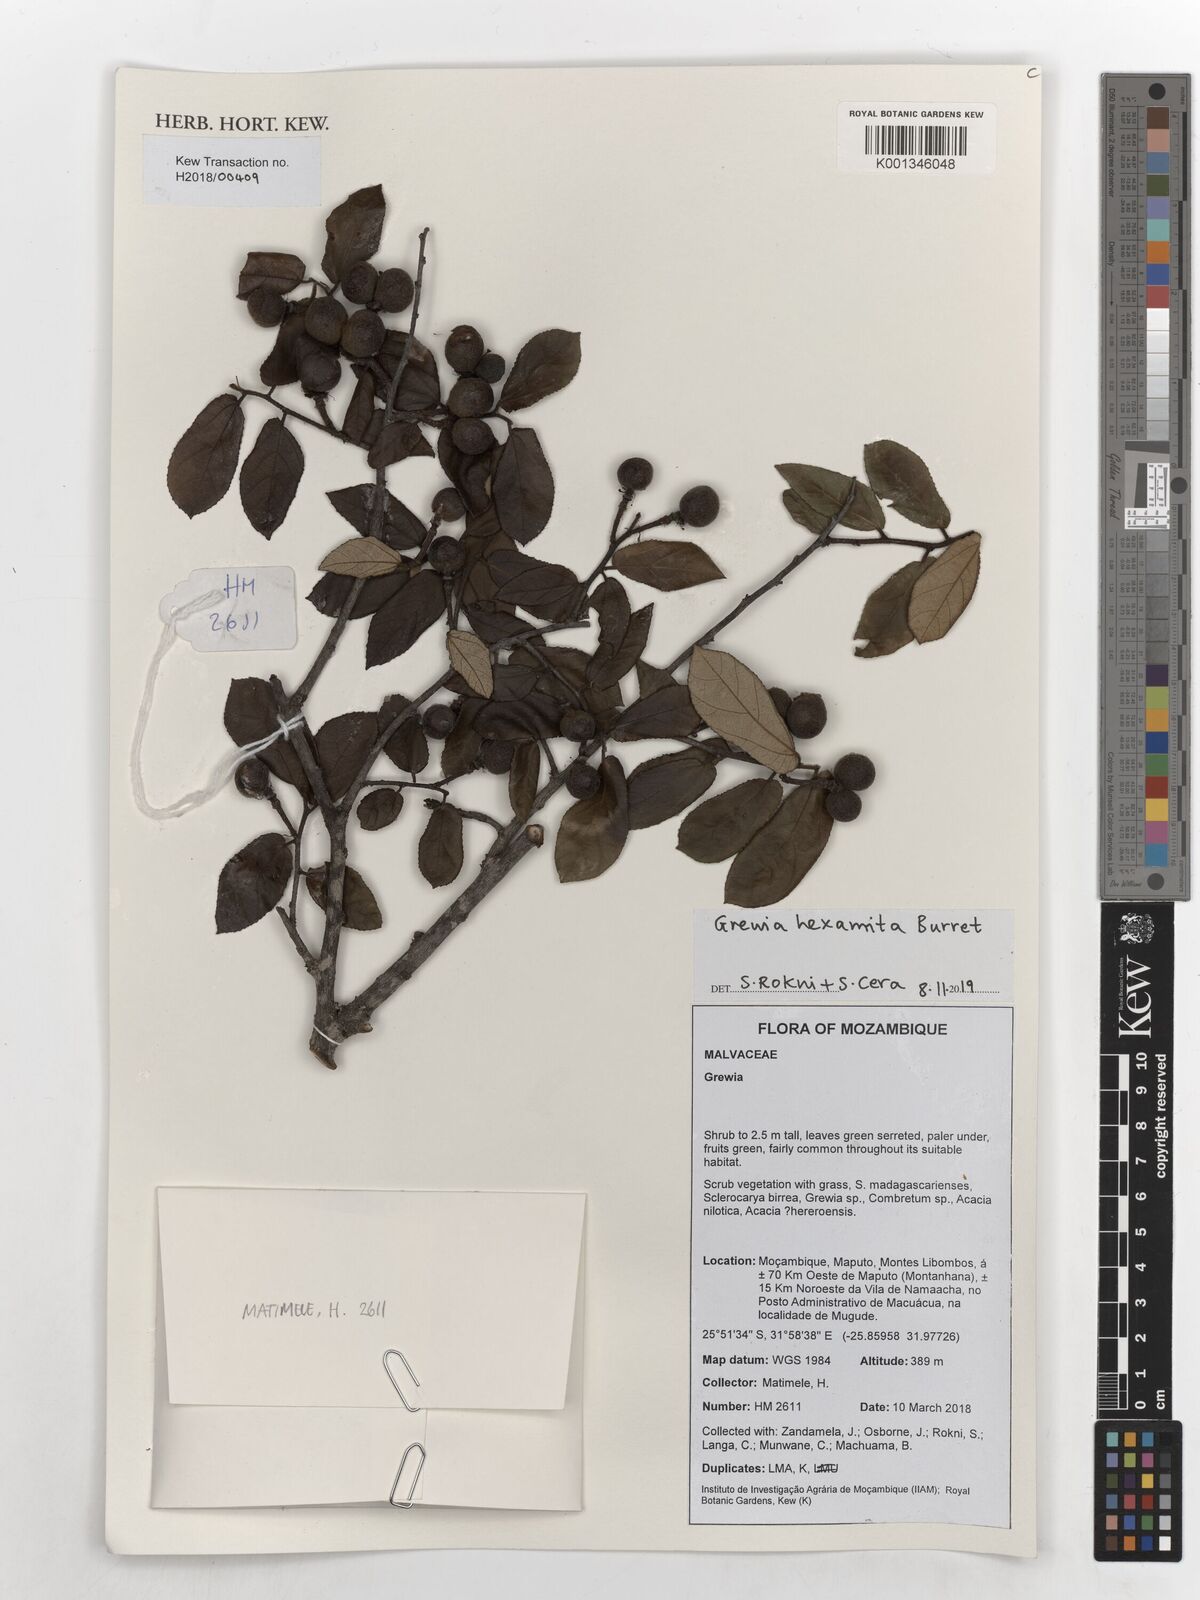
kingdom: Plantae
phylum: Tracheophyta
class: Magnoliopsida
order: Malvales
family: Malvaceae
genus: Grewia
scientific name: Grewia hexamita
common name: Giant raisin
